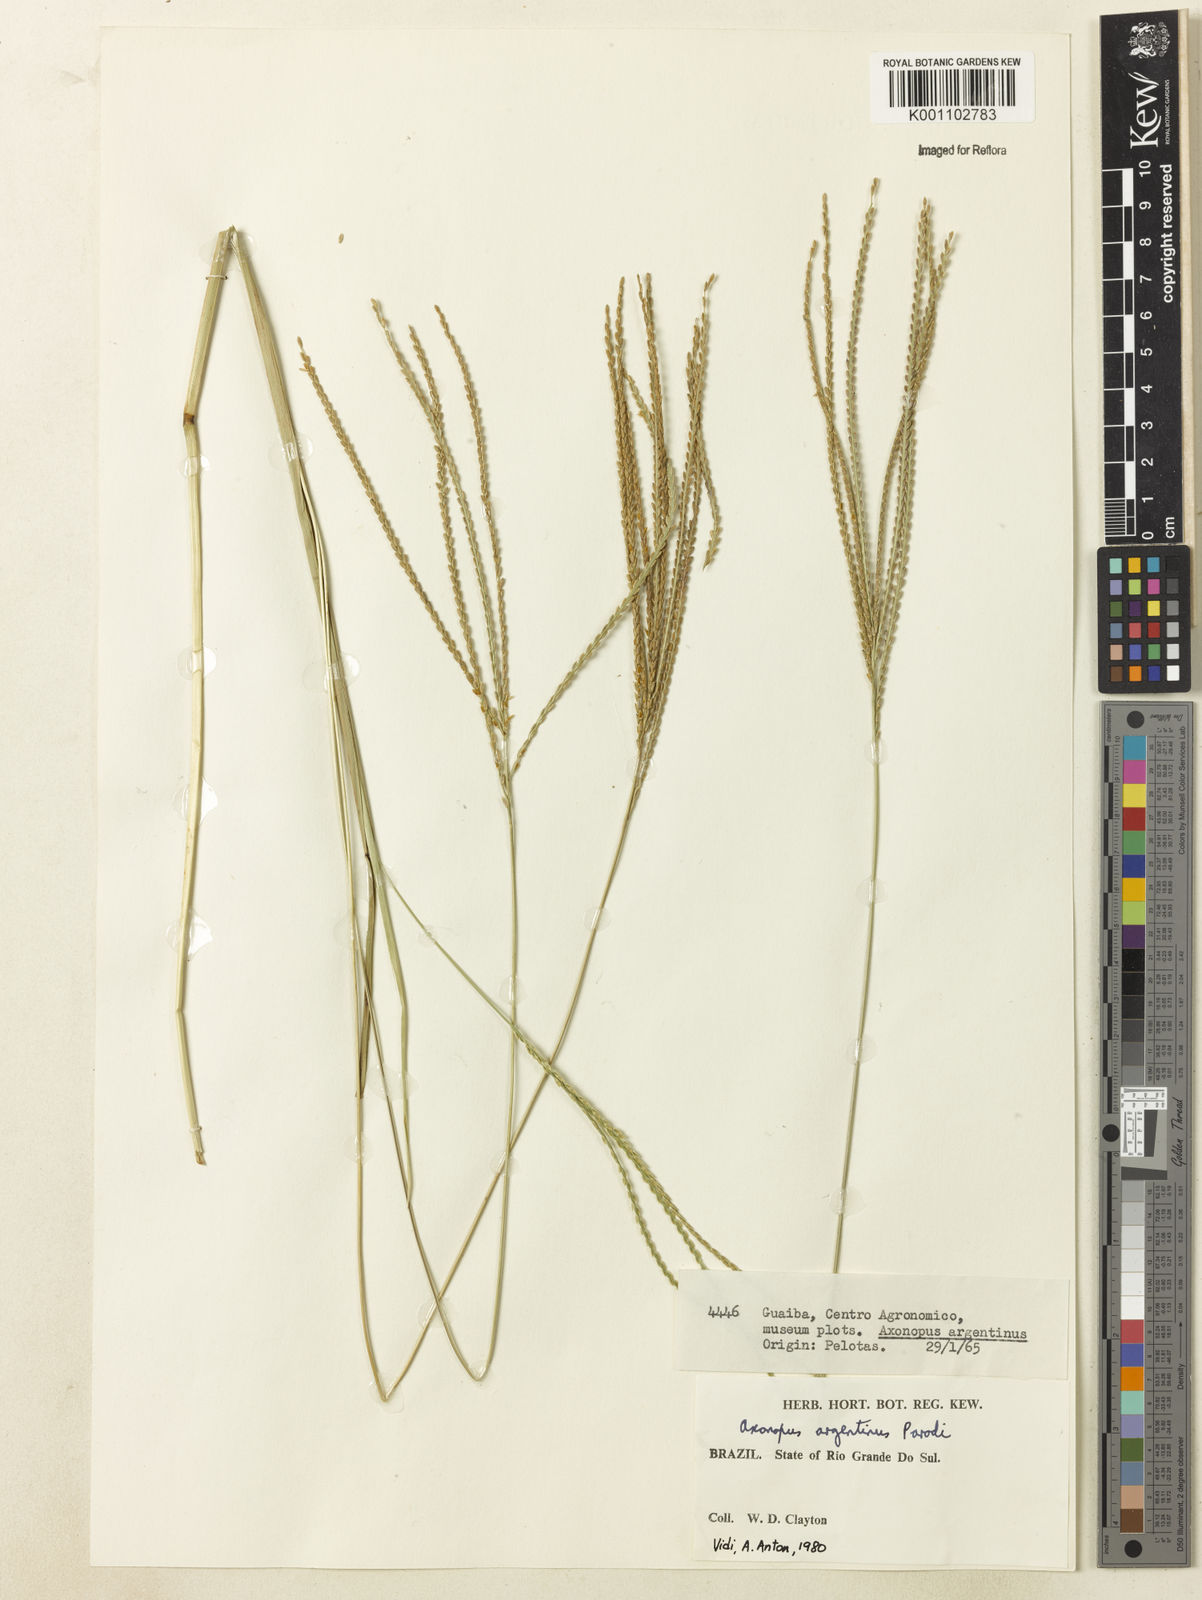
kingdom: Plantae
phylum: Tracheophyta
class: Liliopsida
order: Poales
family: Poaceae
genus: Axonopus
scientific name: Axonopus argentinus
